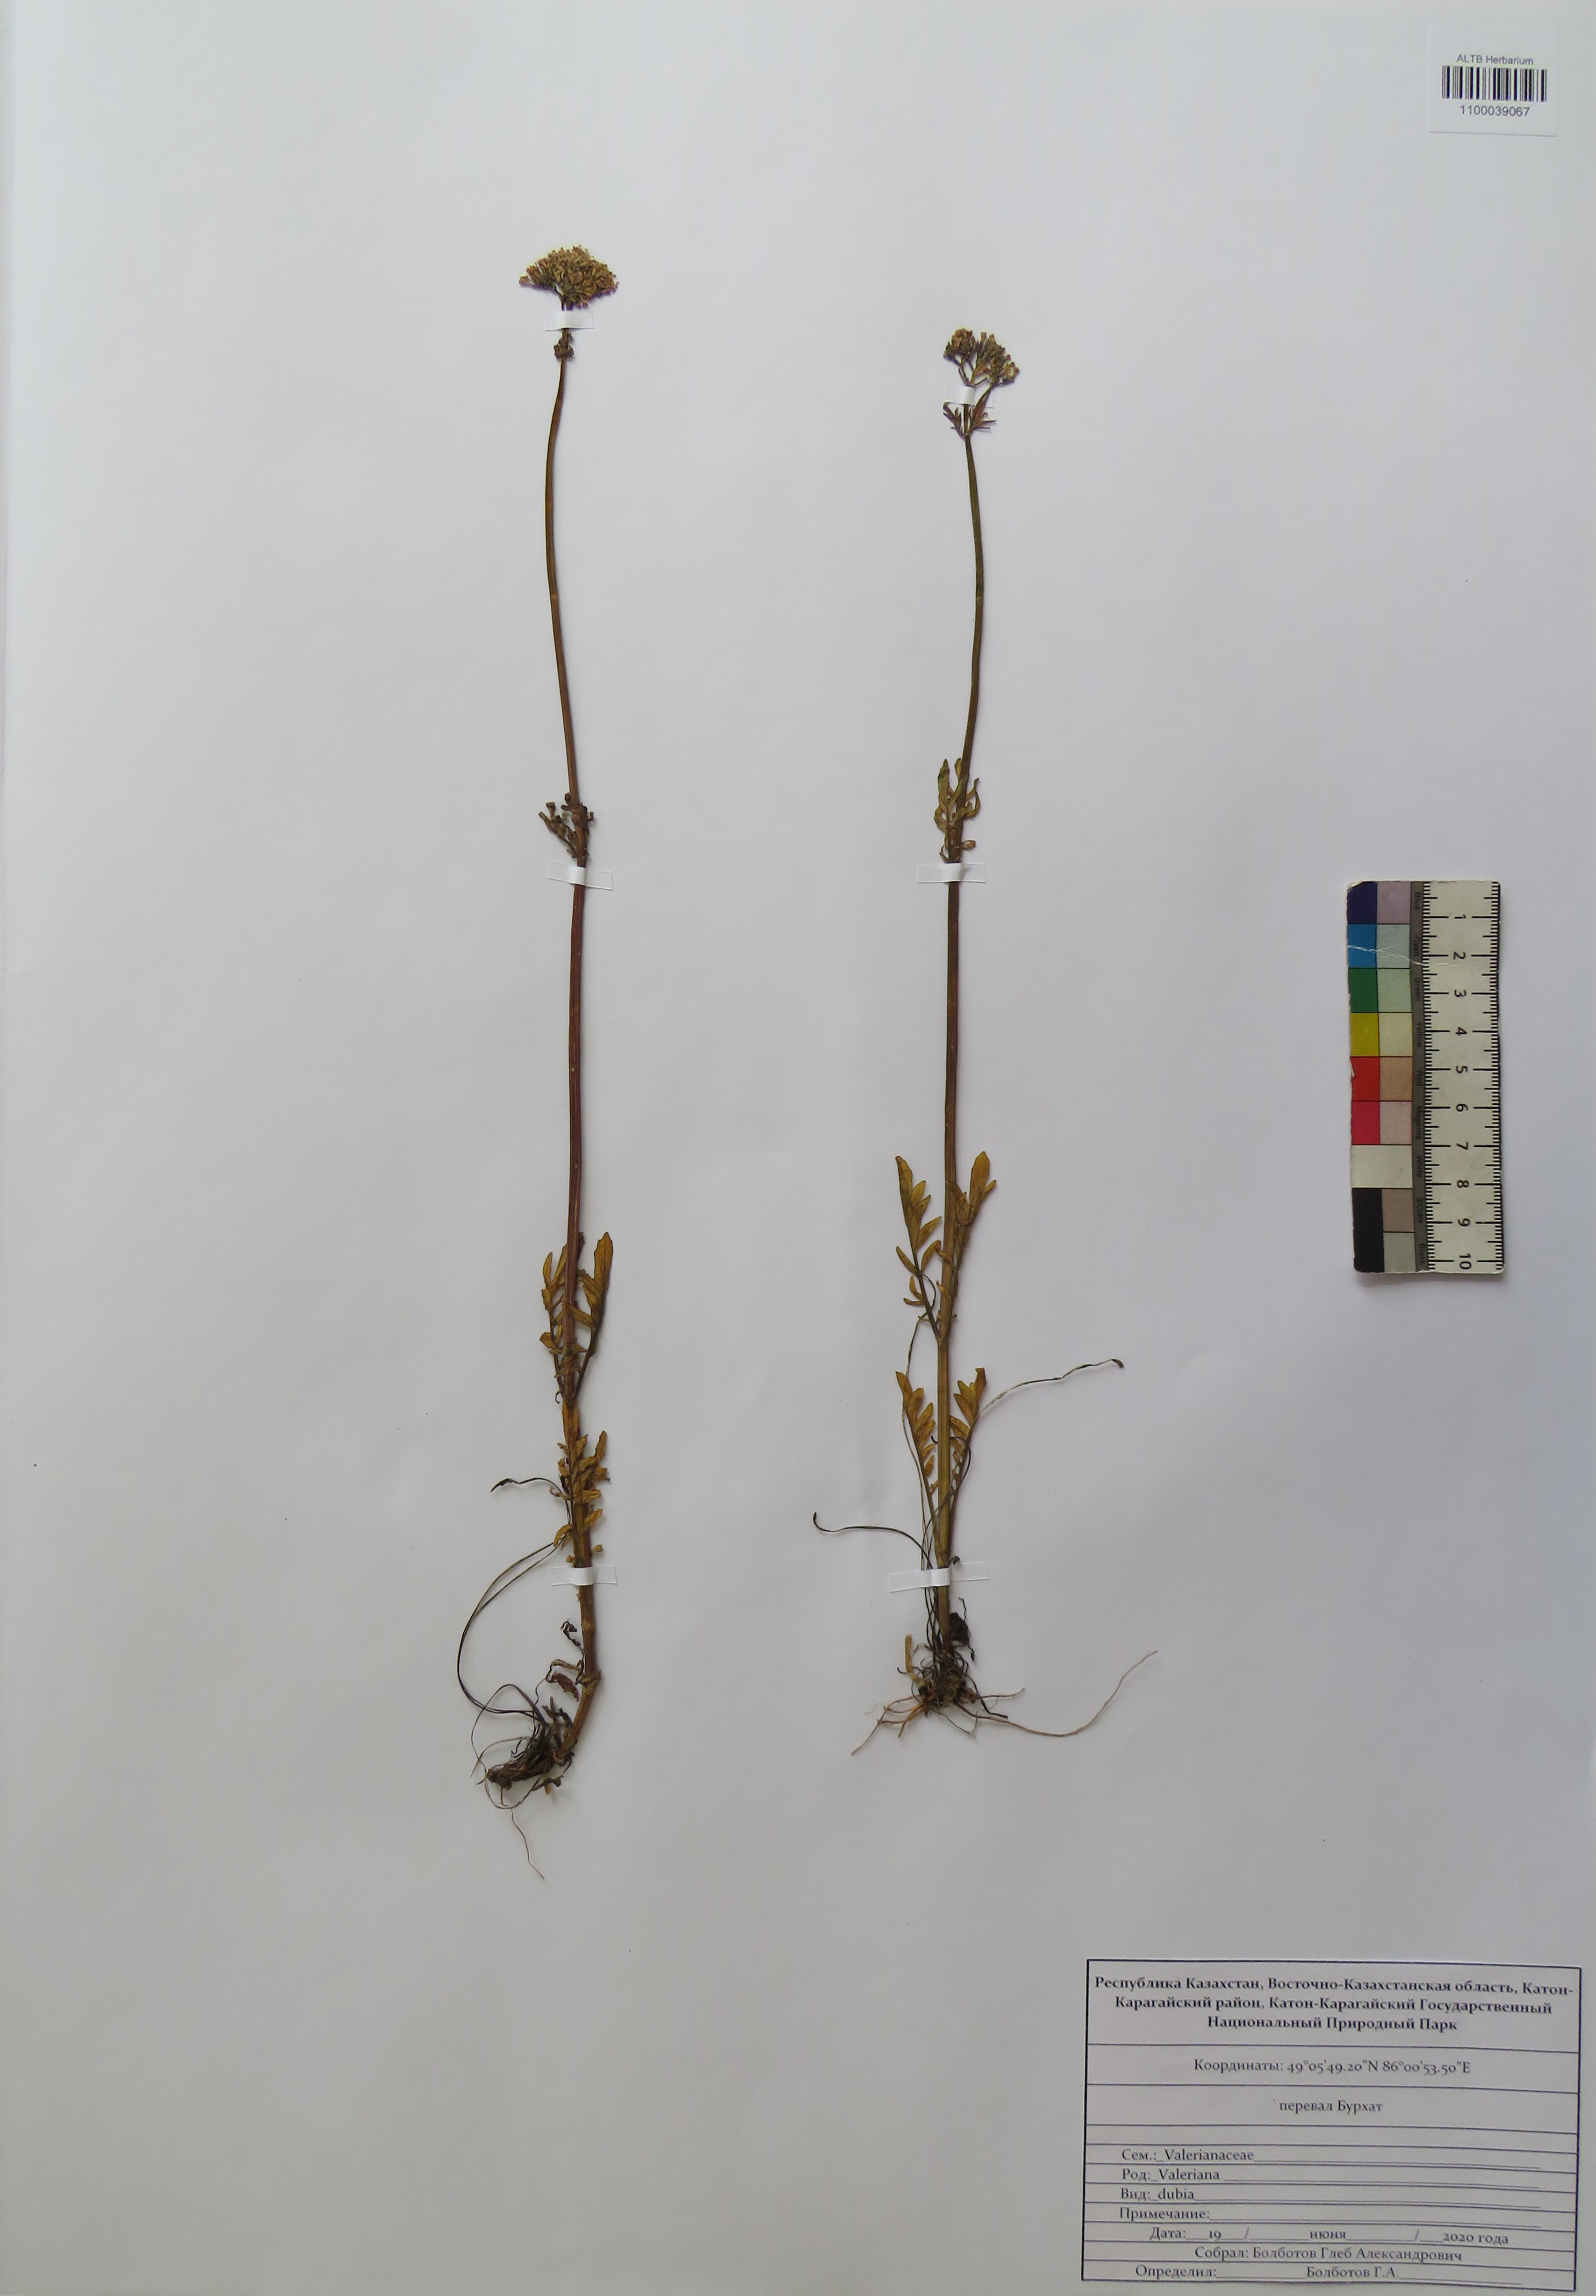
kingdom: Plantae
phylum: Tracheophyta
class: Magnoliopsida
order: Dipsacales
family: Caprifoliaceae
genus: Valeriana
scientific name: Valeriana dubia
